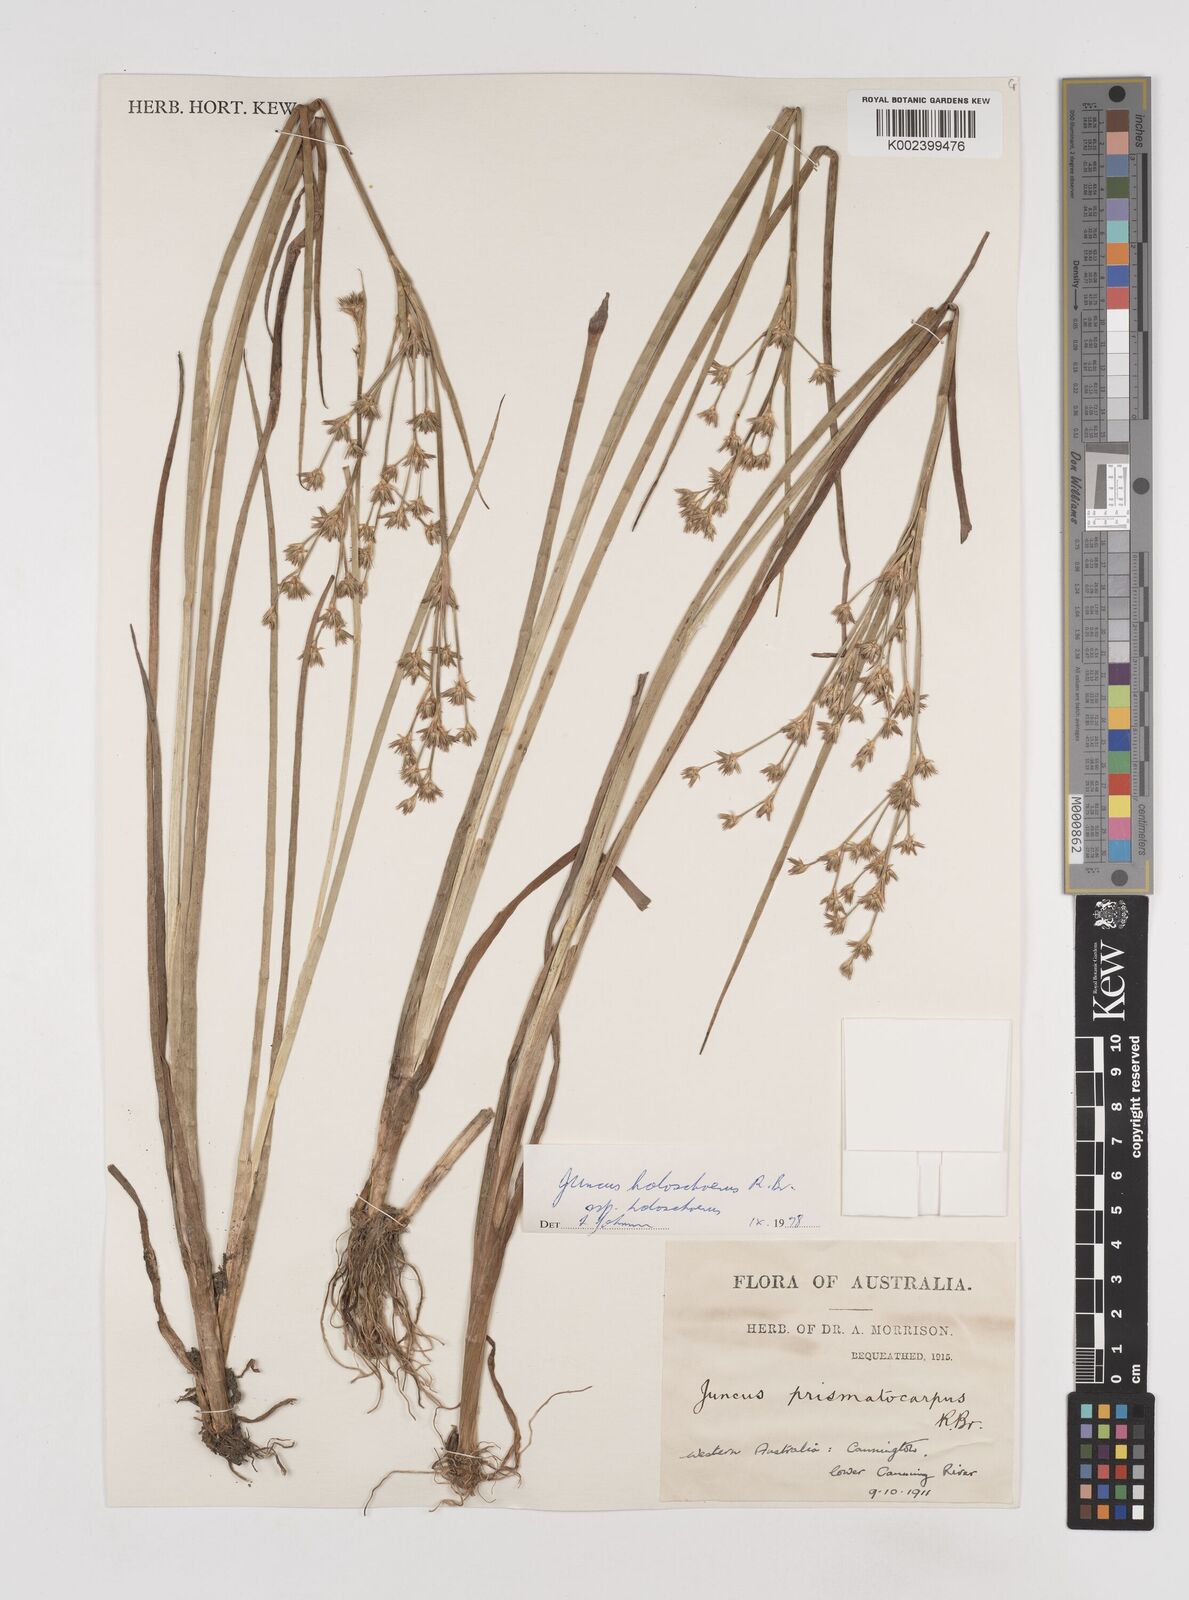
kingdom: Plantae
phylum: Tracheophyta
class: Liliopsida
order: Poales
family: Juncaceae
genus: Juncus
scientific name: Juncus holoschoenus
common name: Joint-leaf rush
